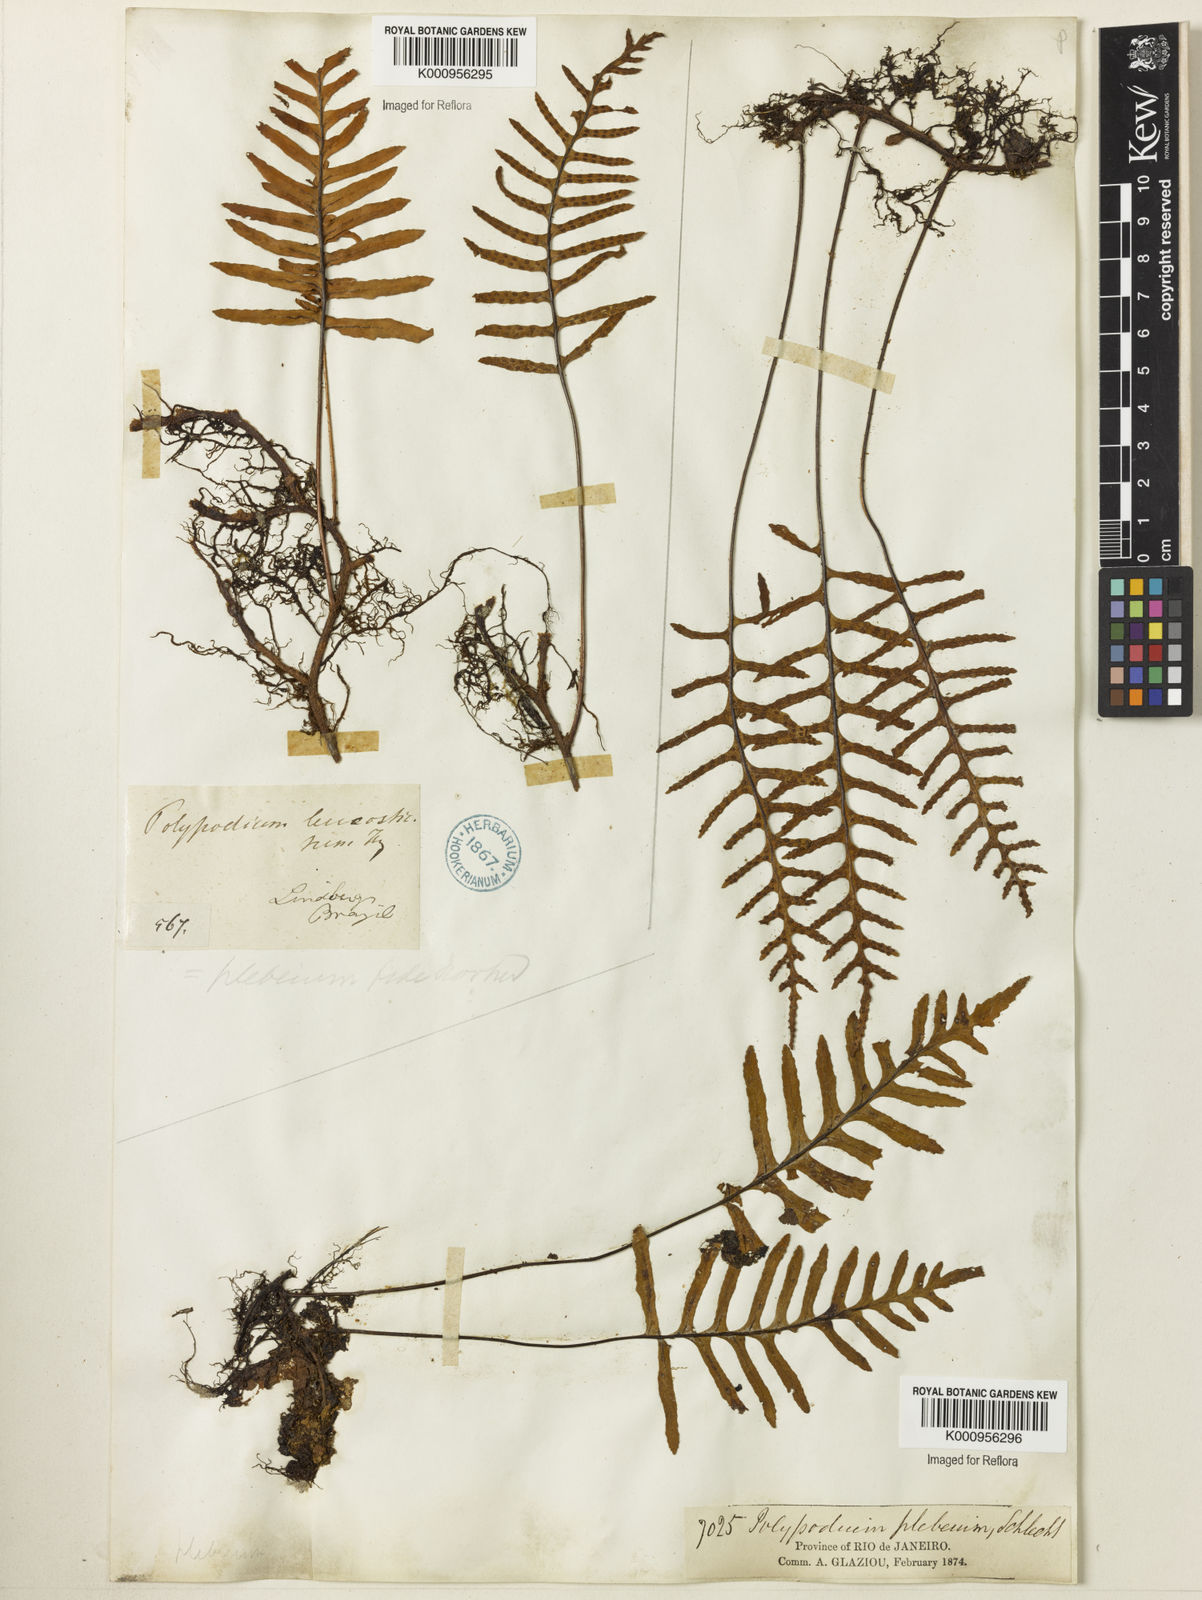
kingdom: Plantae
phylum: Tracheophyta
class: Polypodiopsida
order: Polypodiales
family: Polypodiaceae
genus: Polypodium
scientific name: Polypodium
